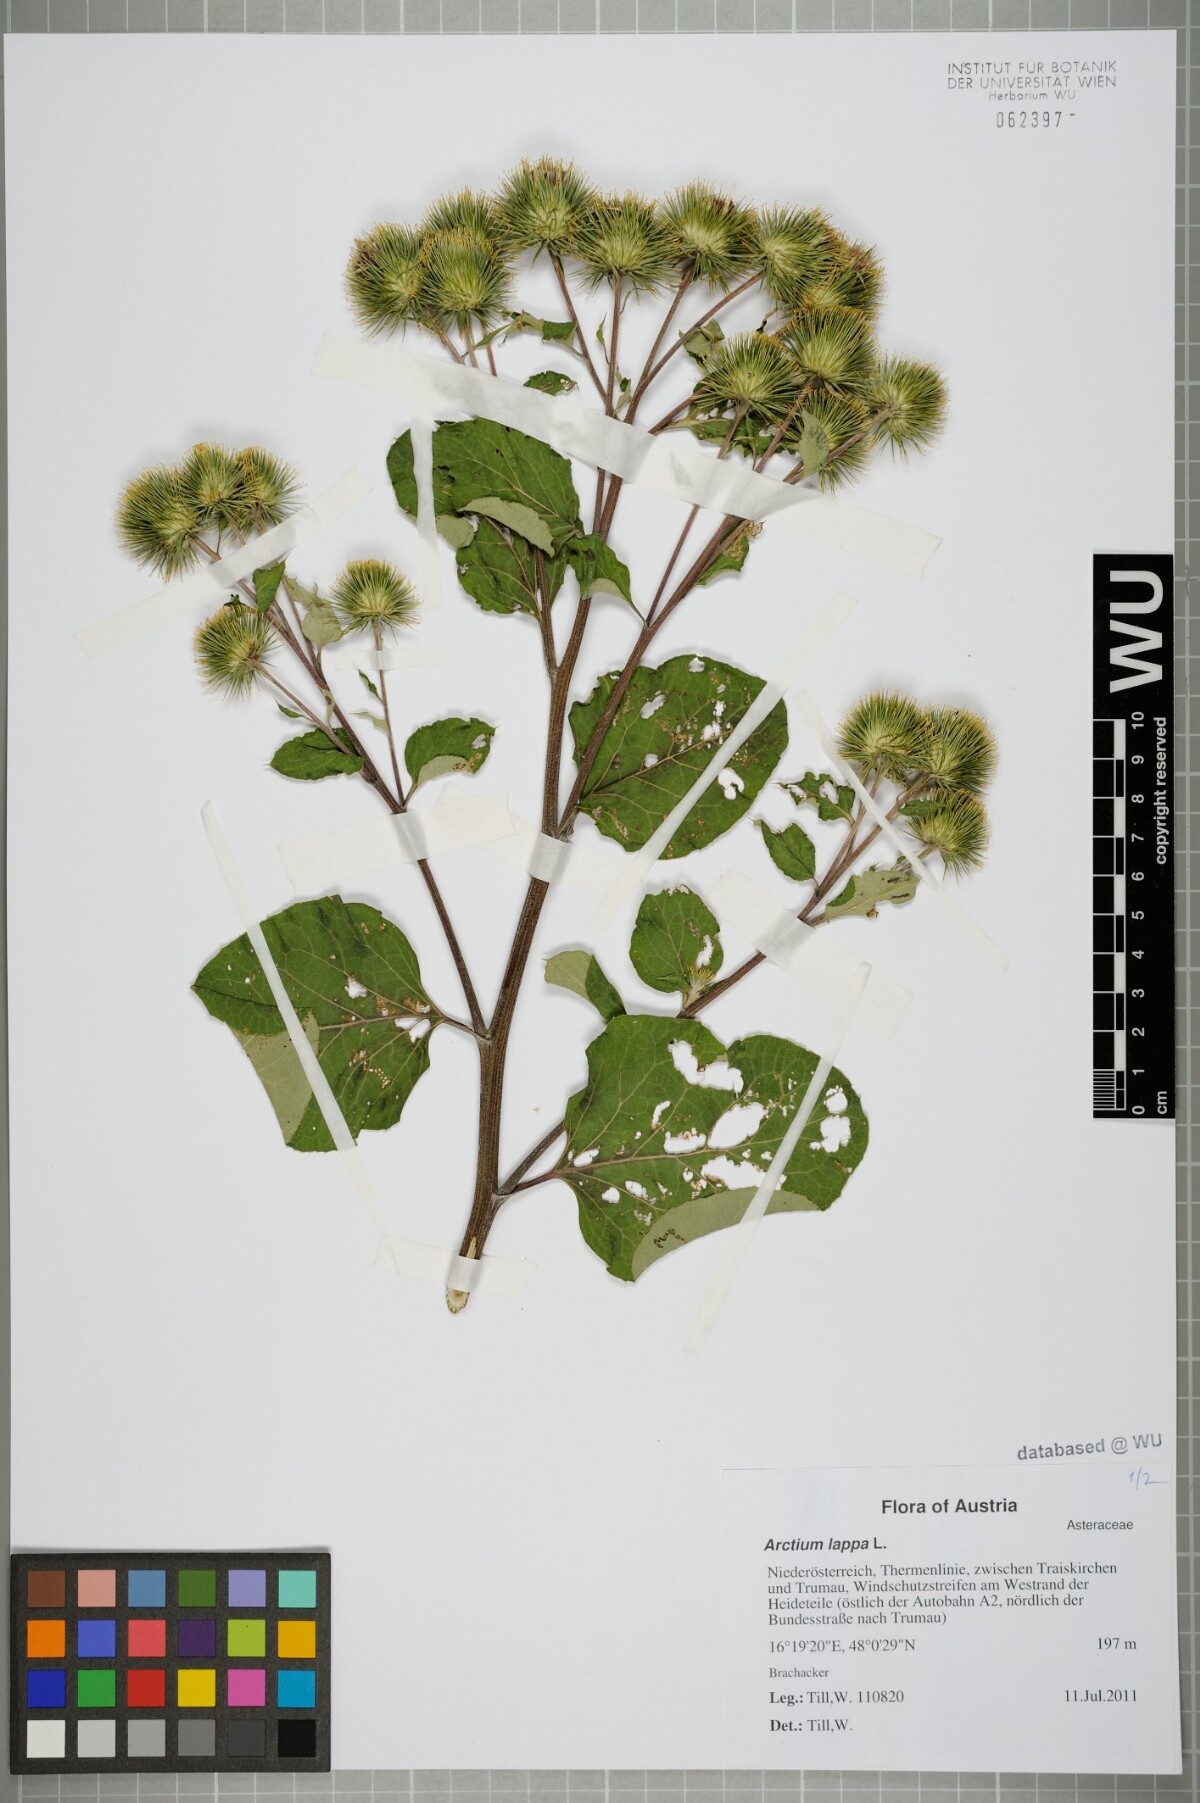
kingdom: Plantae
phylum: Tracheophyta
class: Magnoliopsida
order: Asterales
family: Asteraceae
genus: Arctium
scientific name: Arctium lappa
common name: Greater burdock
